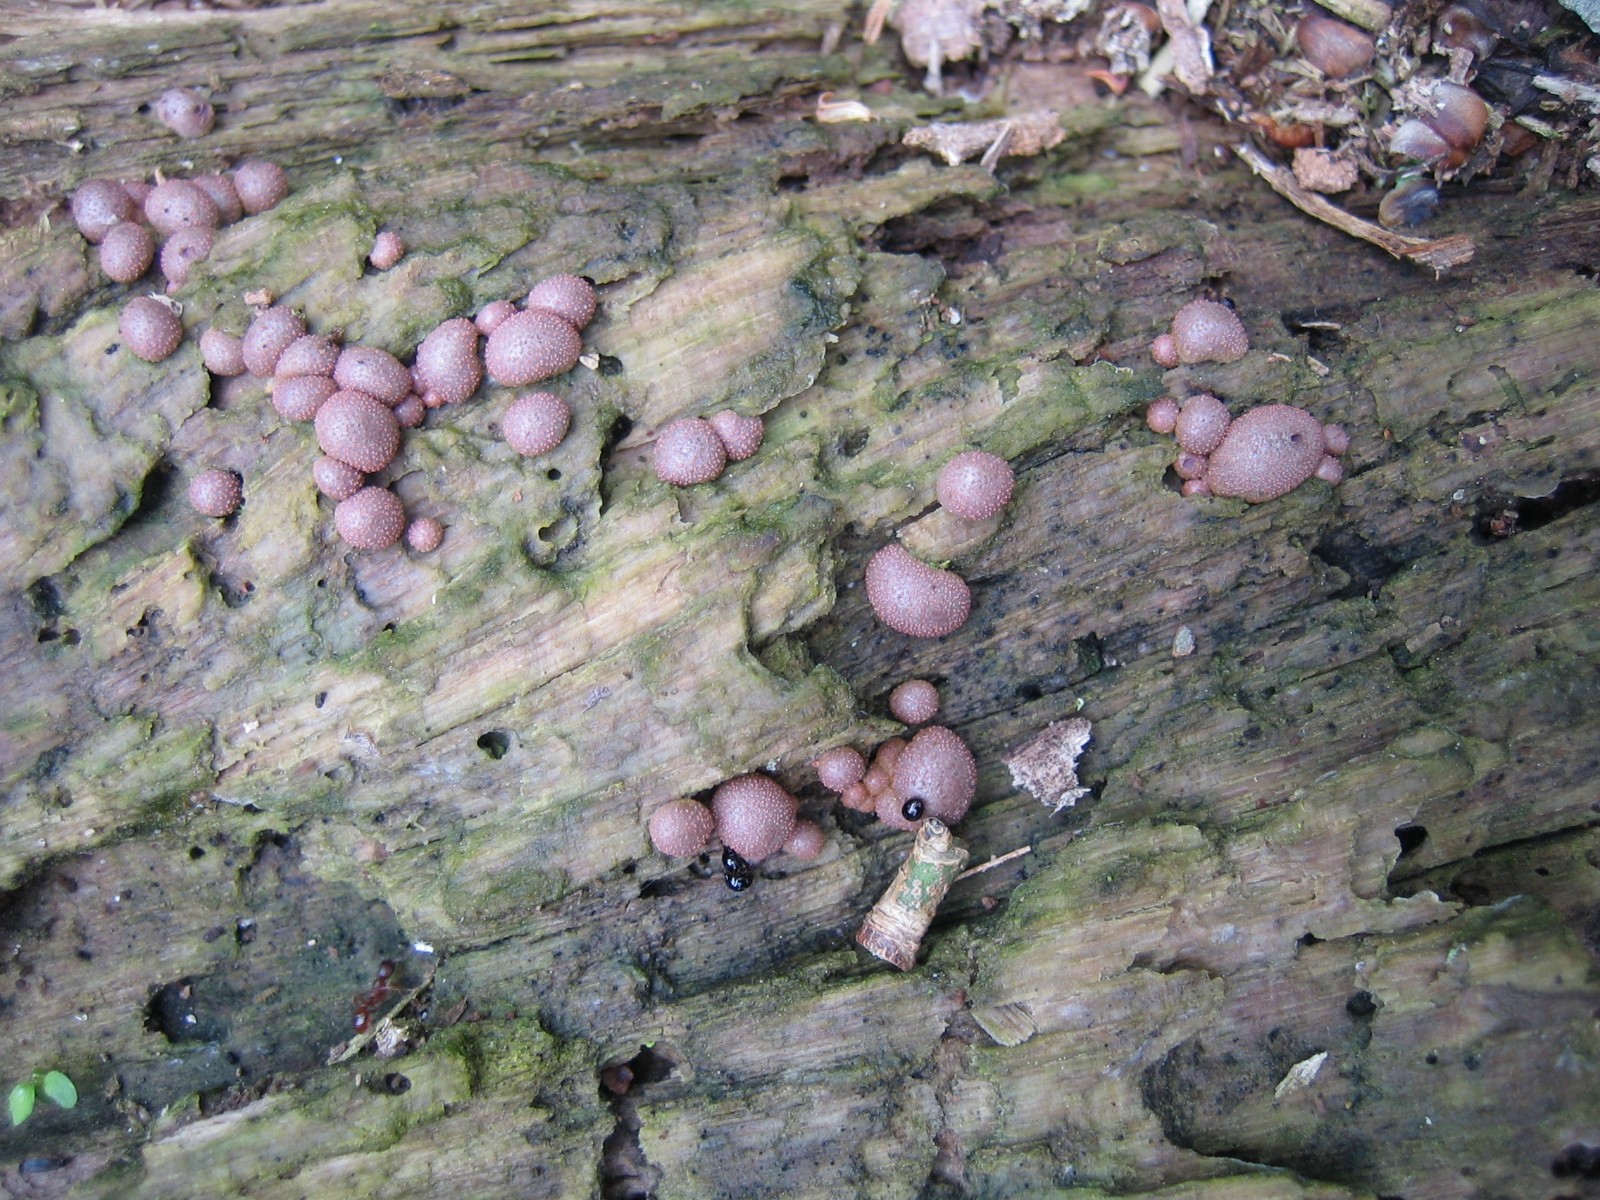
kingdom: Protozoa
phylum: Mycetozoa
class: Myxomycetes
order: Cribrariales
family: Tubiferaceae
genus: Lycogala
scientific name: Lycogala epidendrum
